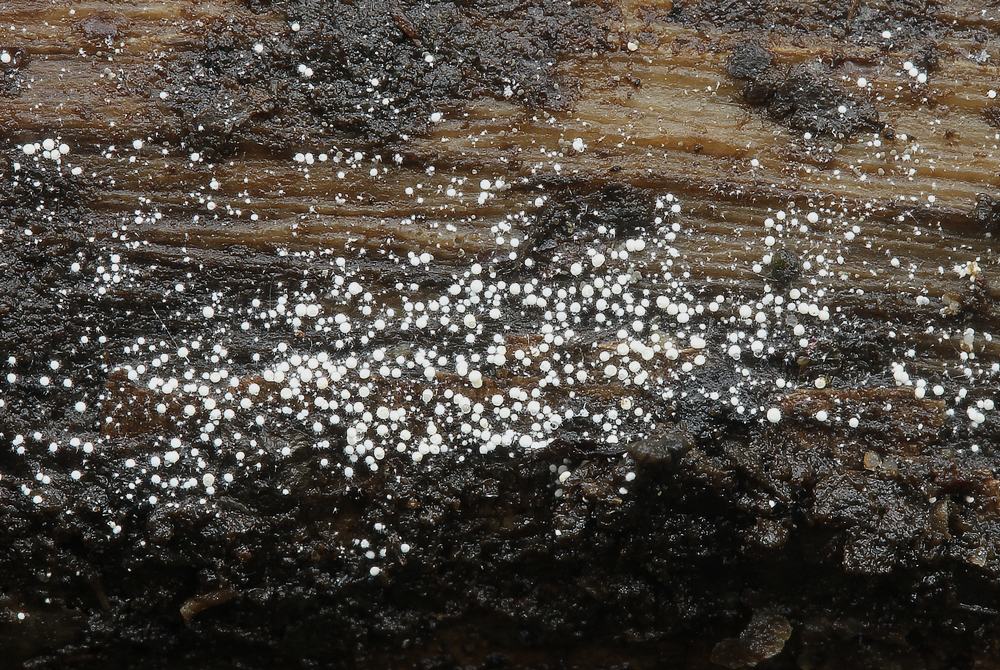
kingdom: Fungi
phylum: Basidiomycota
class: Agaricomycetes
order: Trechisporales
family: Hydnodontaceae
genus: Subulicystidium
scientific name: Subulicystidium longisporum
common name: almindelig pigtrådshinde
